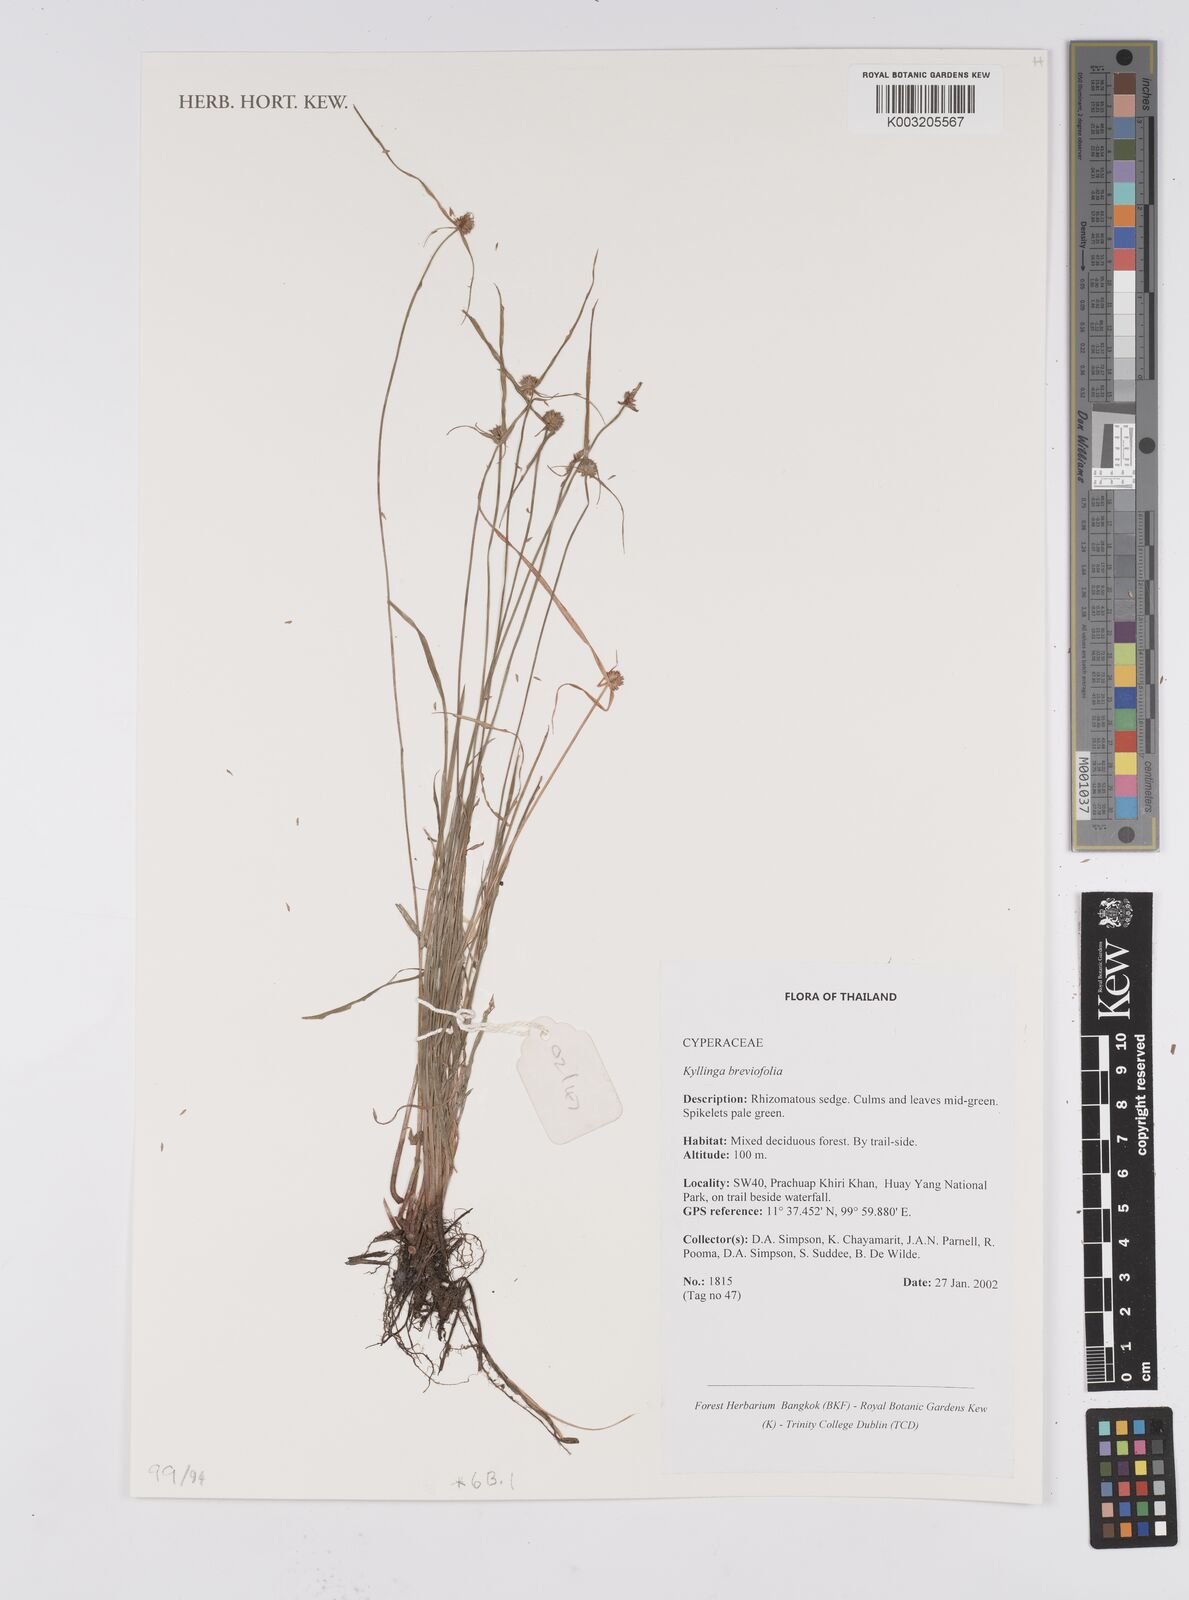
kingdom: Plantae
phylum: Tracheophyta
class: Liliopsida
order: Poales
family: Cyperaceae
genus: Cyperus
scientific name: Cyperus brevifolius
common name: Globe kyllinga
